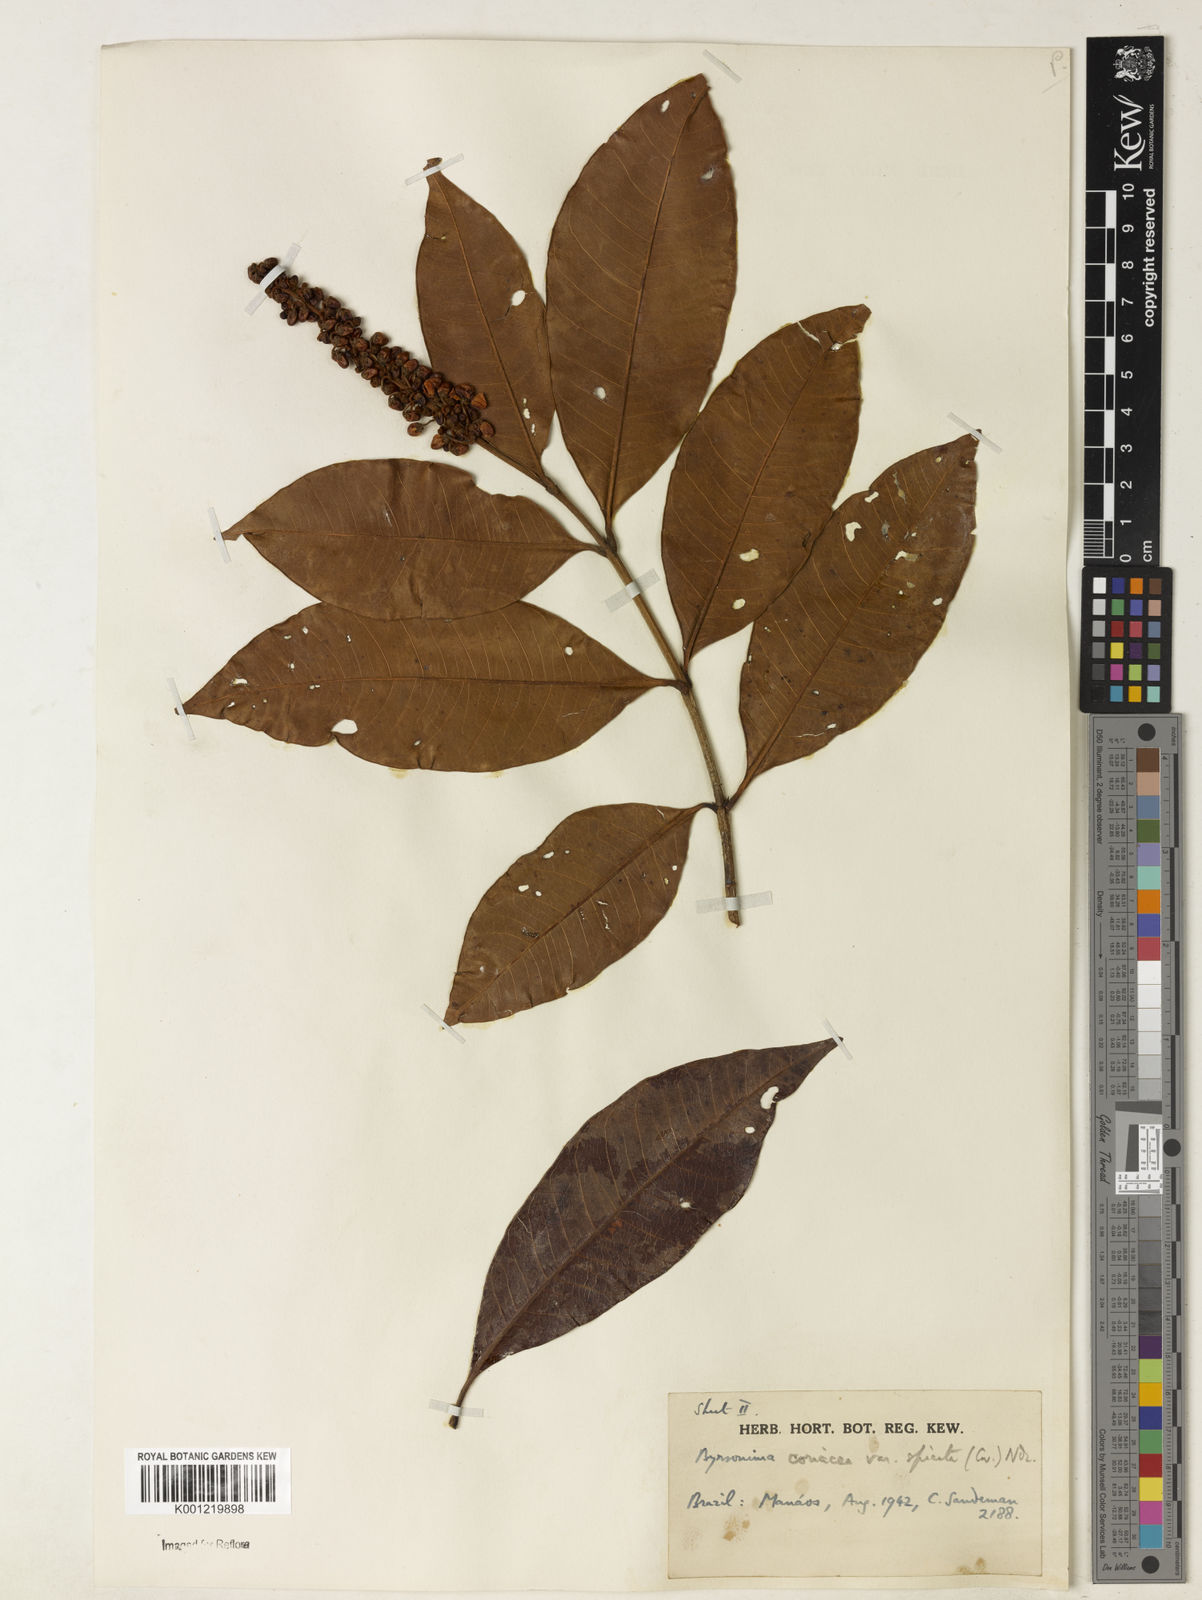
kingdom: Plantae
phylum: Tracheophyta
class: Magnoliopsida
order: Malpighiales
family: Malpighiaceae
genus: Byrsonima
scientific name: Byrsonima
